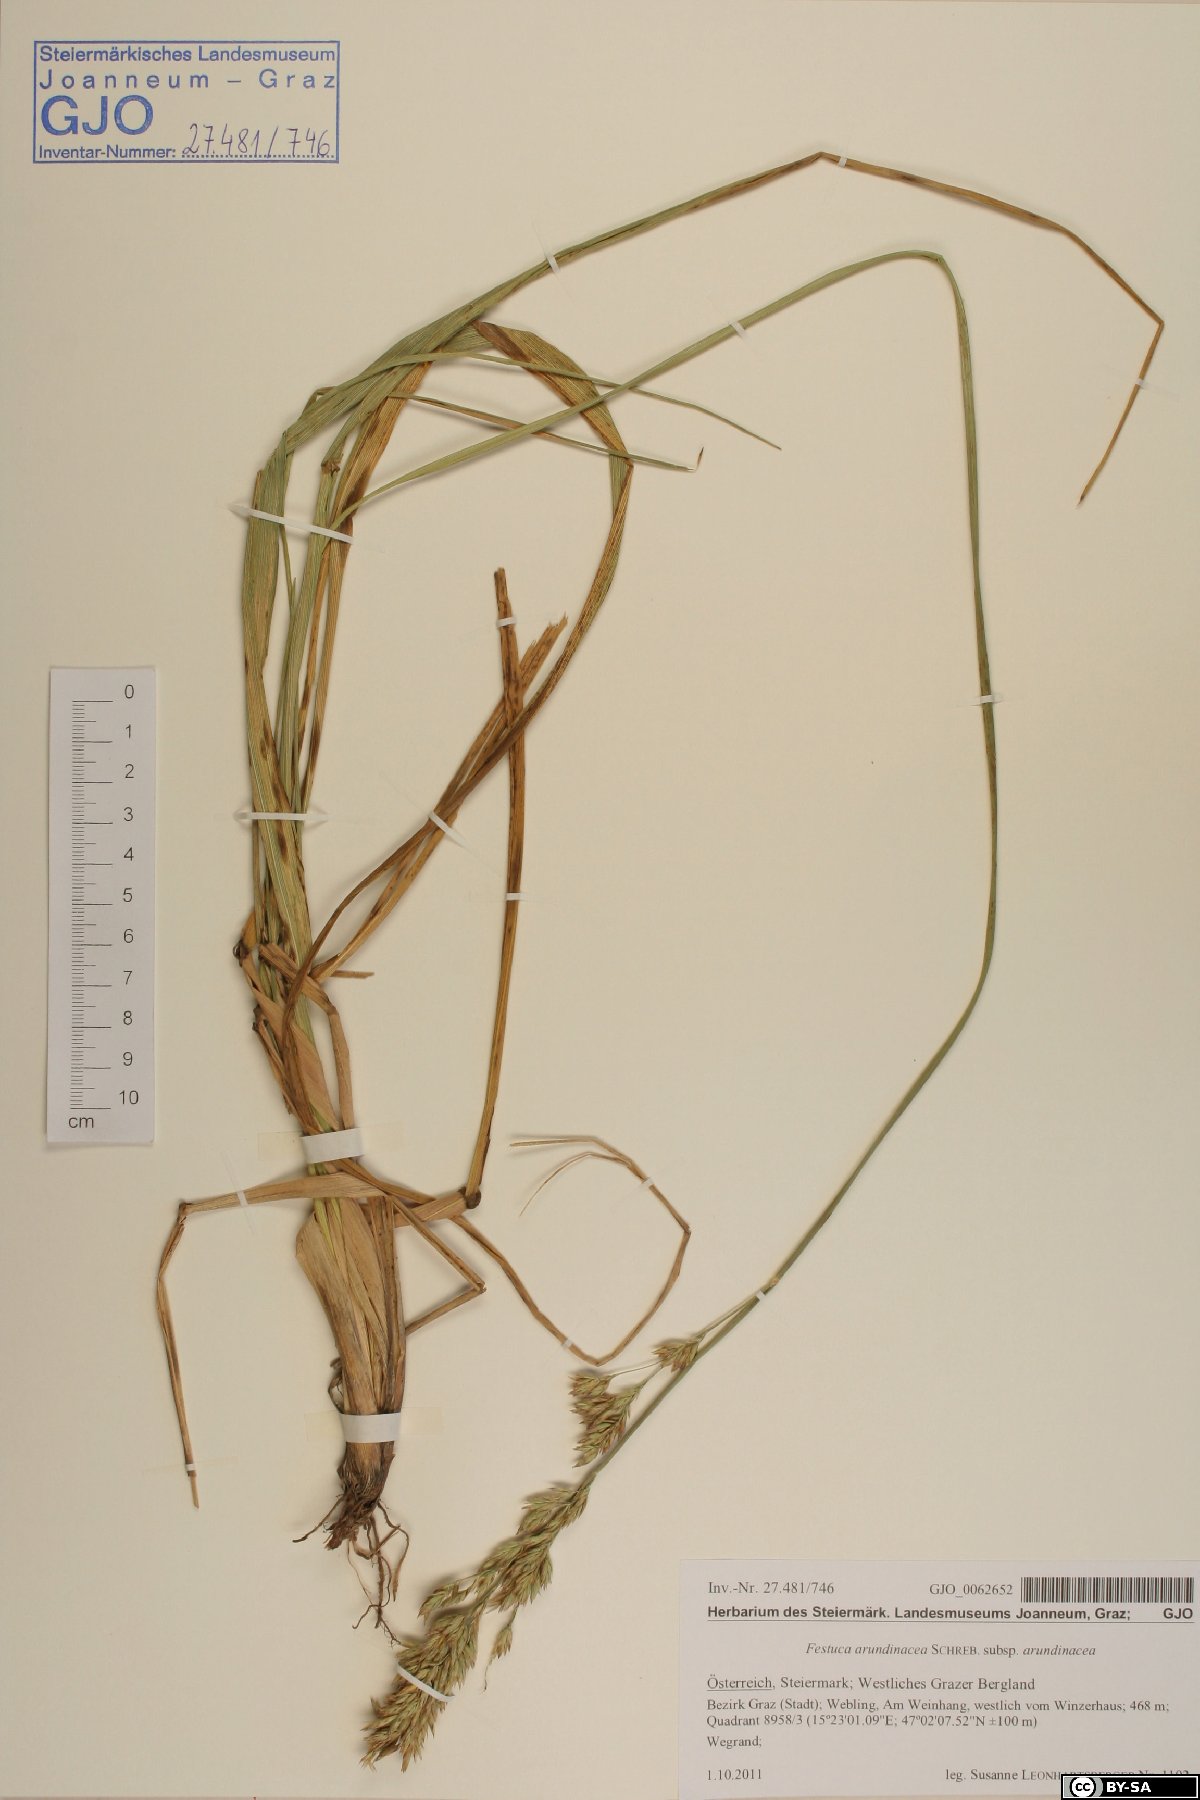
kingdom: Plantae
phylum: Tracheophyta
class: Liliopsida
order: Poales
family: Poaceae
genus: Lolium
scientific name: Lolium arundinaceum
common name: Reed fescue
